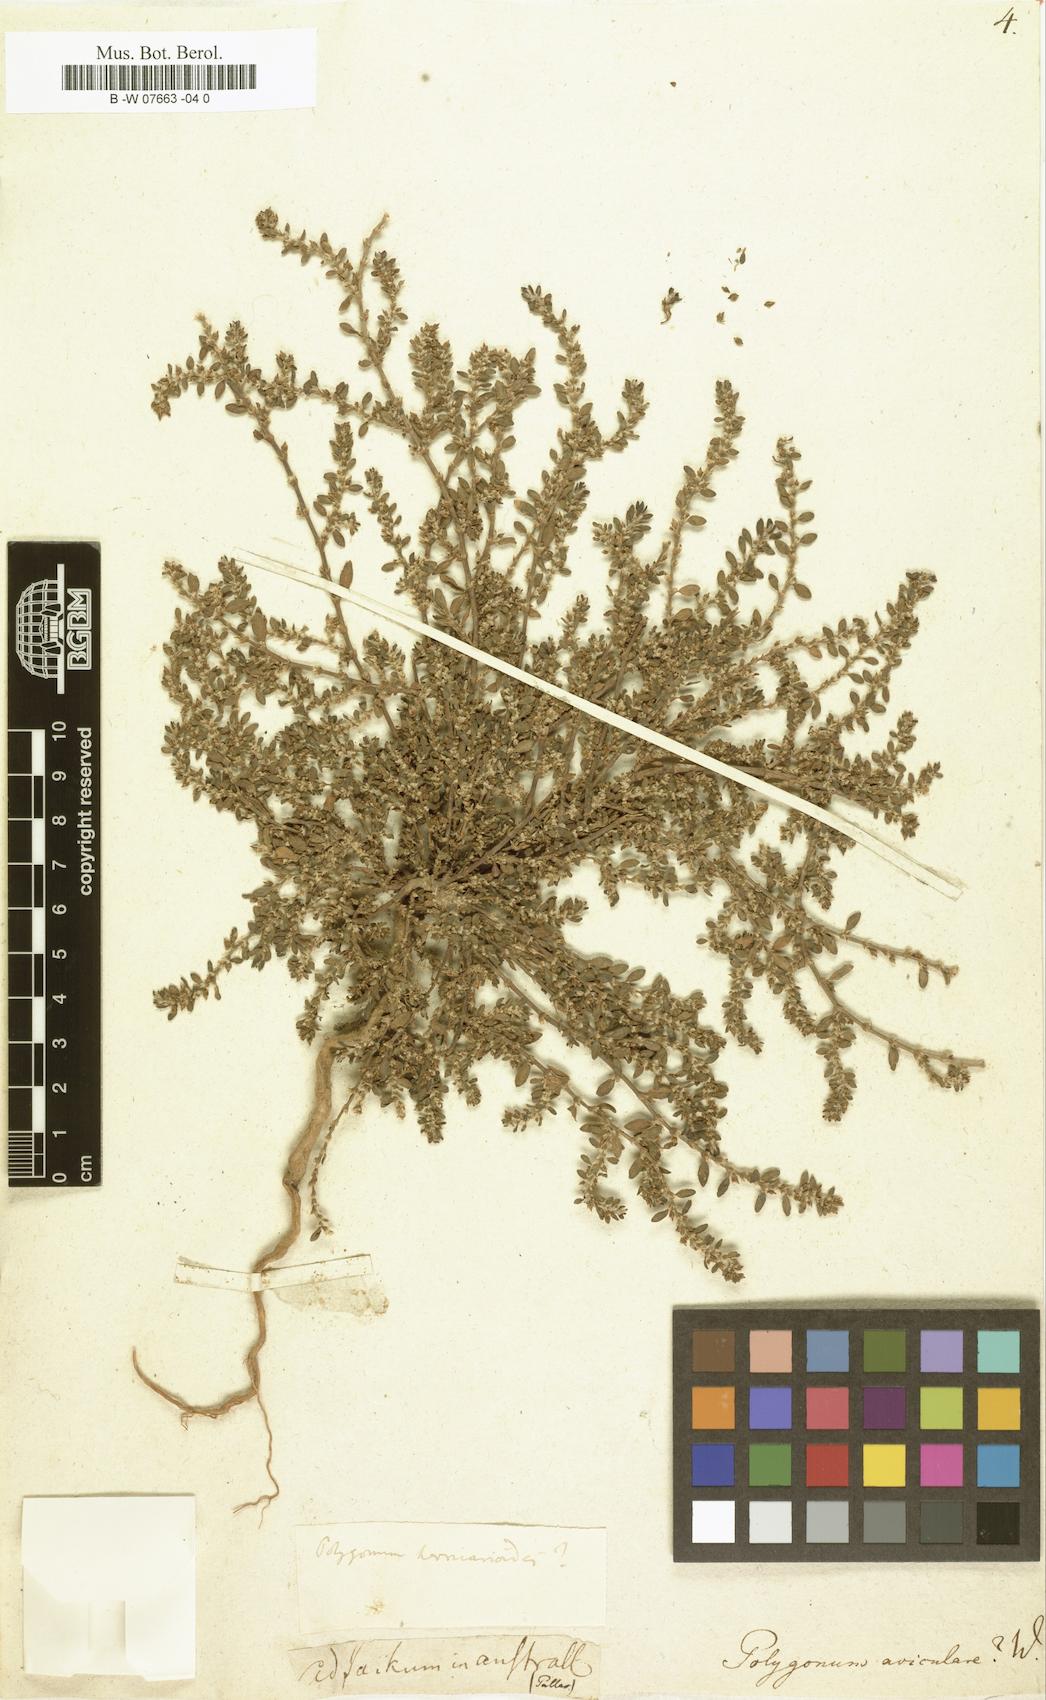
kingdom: Plantae
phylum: Tracheophyta
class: Magnoliopsida
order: Caryophyllales
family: Polygonaceae
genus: Polygonum
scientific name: Polygonum aviculare
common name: Prostrate knotweed
